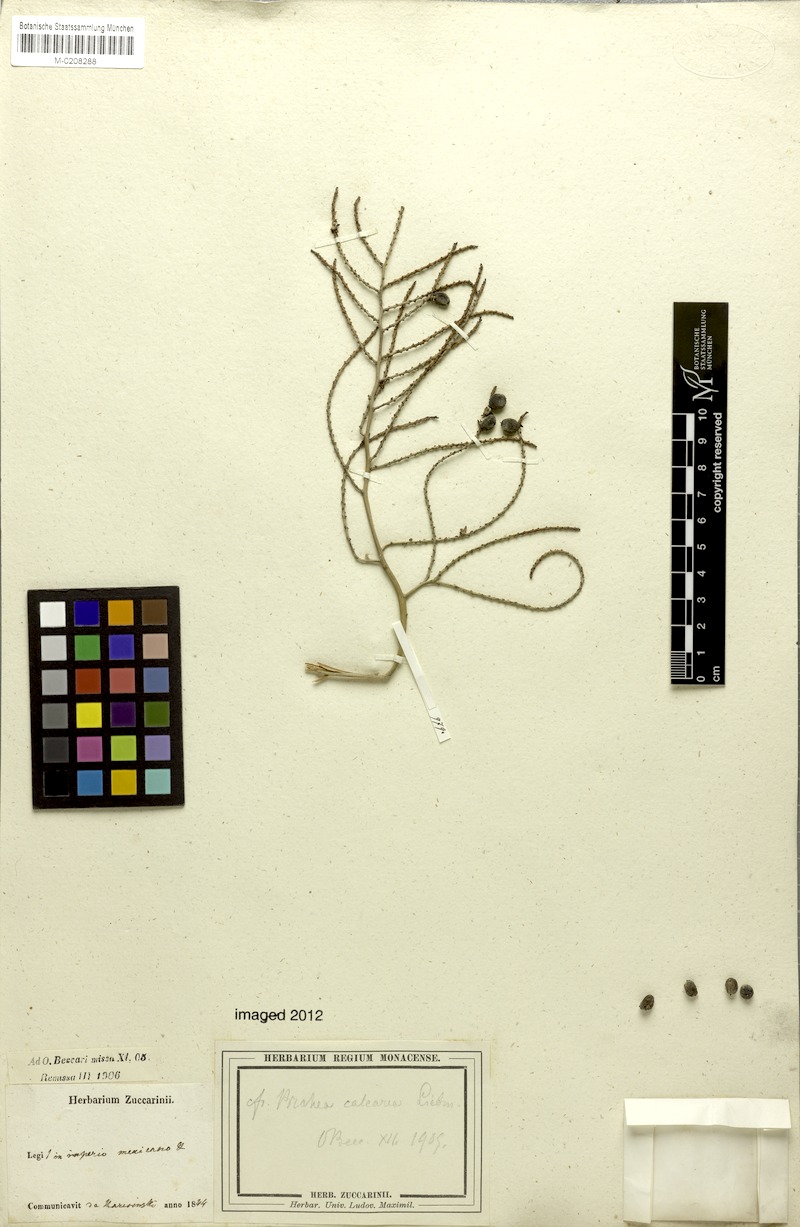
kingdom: Plantae
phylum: Tracheophyta
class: Liliopsida
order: Arecales
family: Arecaceae
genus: Brahea
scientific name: Brahea calcarea
